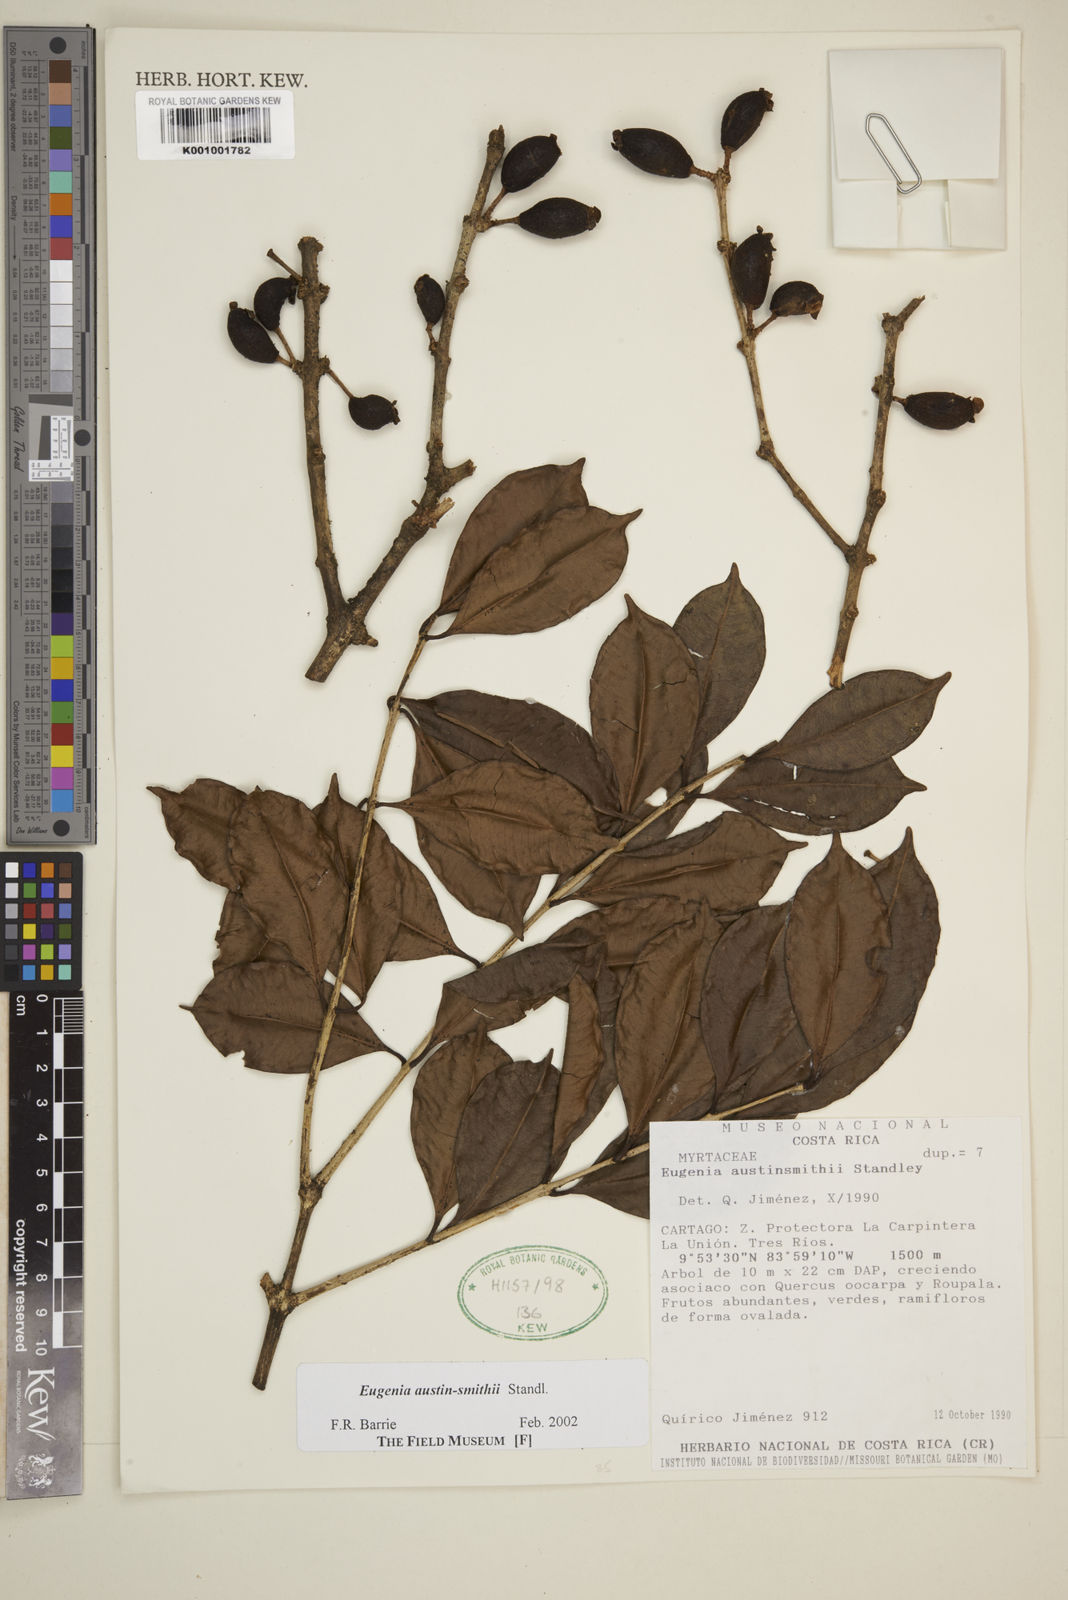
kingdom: Plantae
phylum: Tracheophyta
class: Magnoliopsida
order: Myrtales
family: Myrtaceae
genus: Eugenia
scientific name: Eugenia austin-smithii
